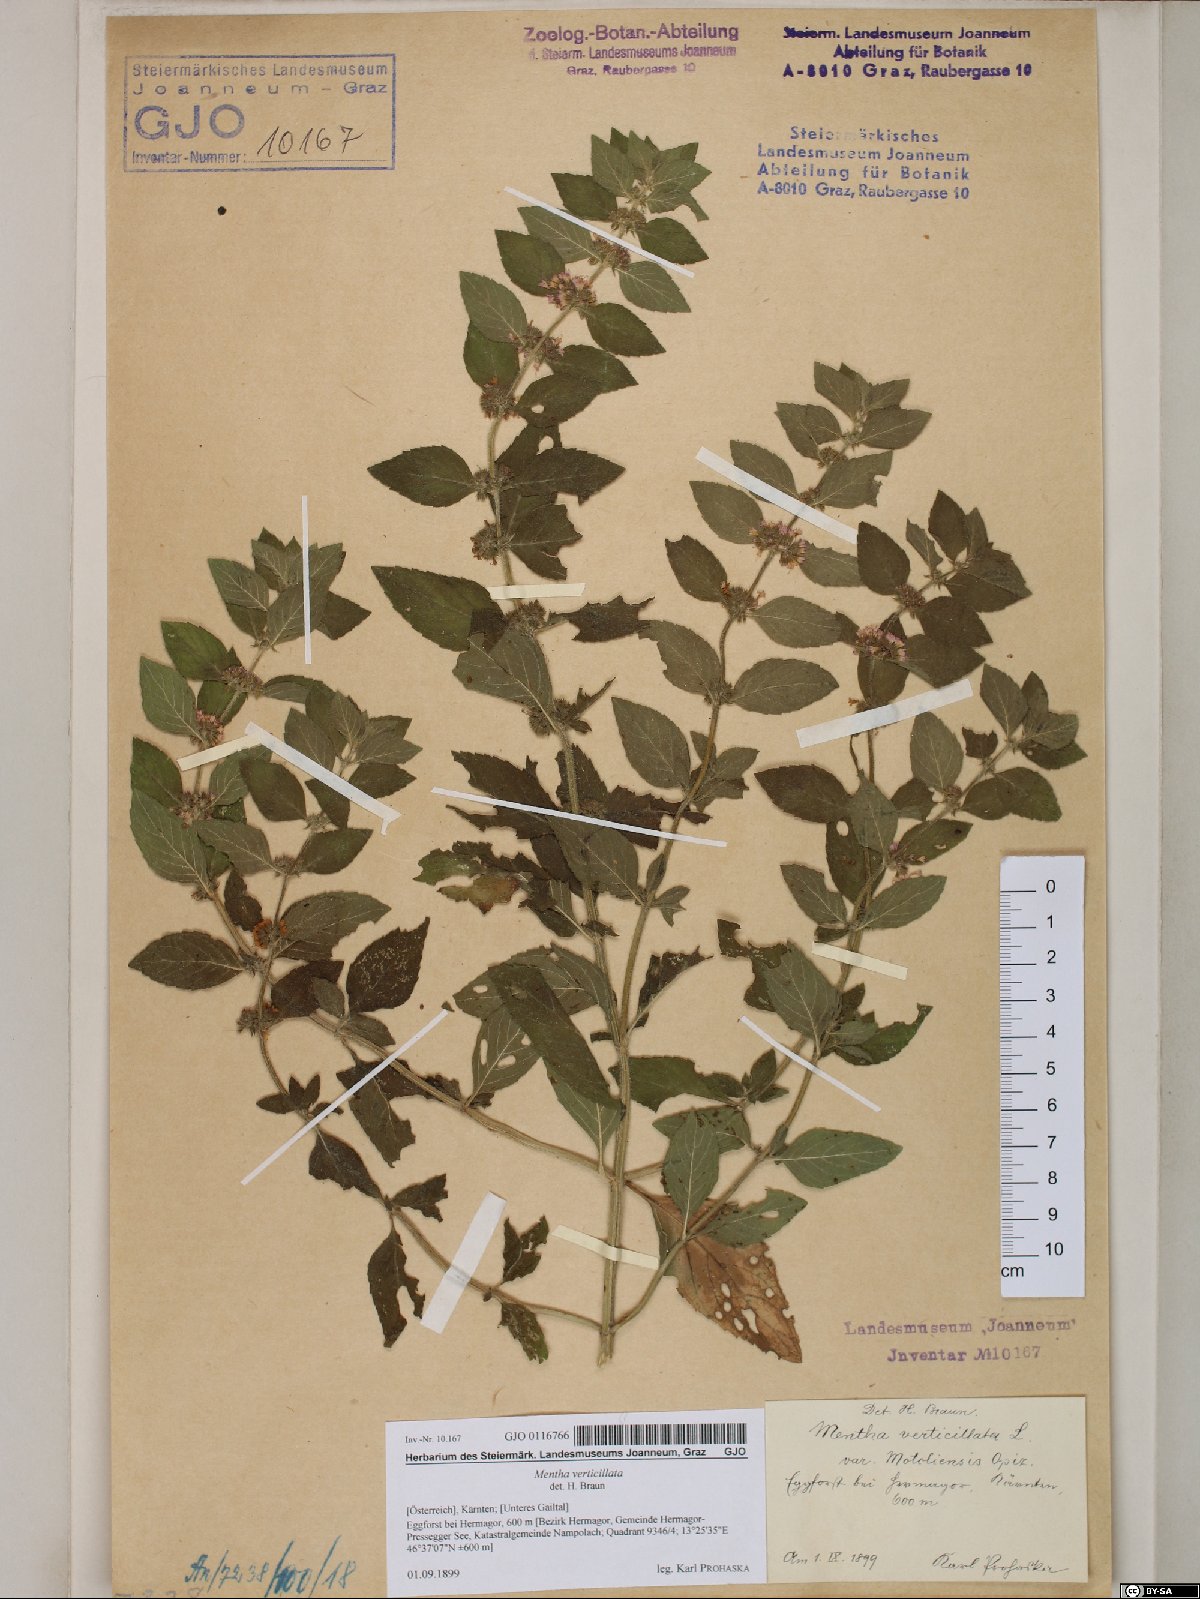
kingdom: Plantae
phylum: Tracheophyta
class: Magnoliopsida
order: Lamiales
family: Lamiaceae
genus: Mentha
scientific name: Mentha verticillata
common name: Mint
